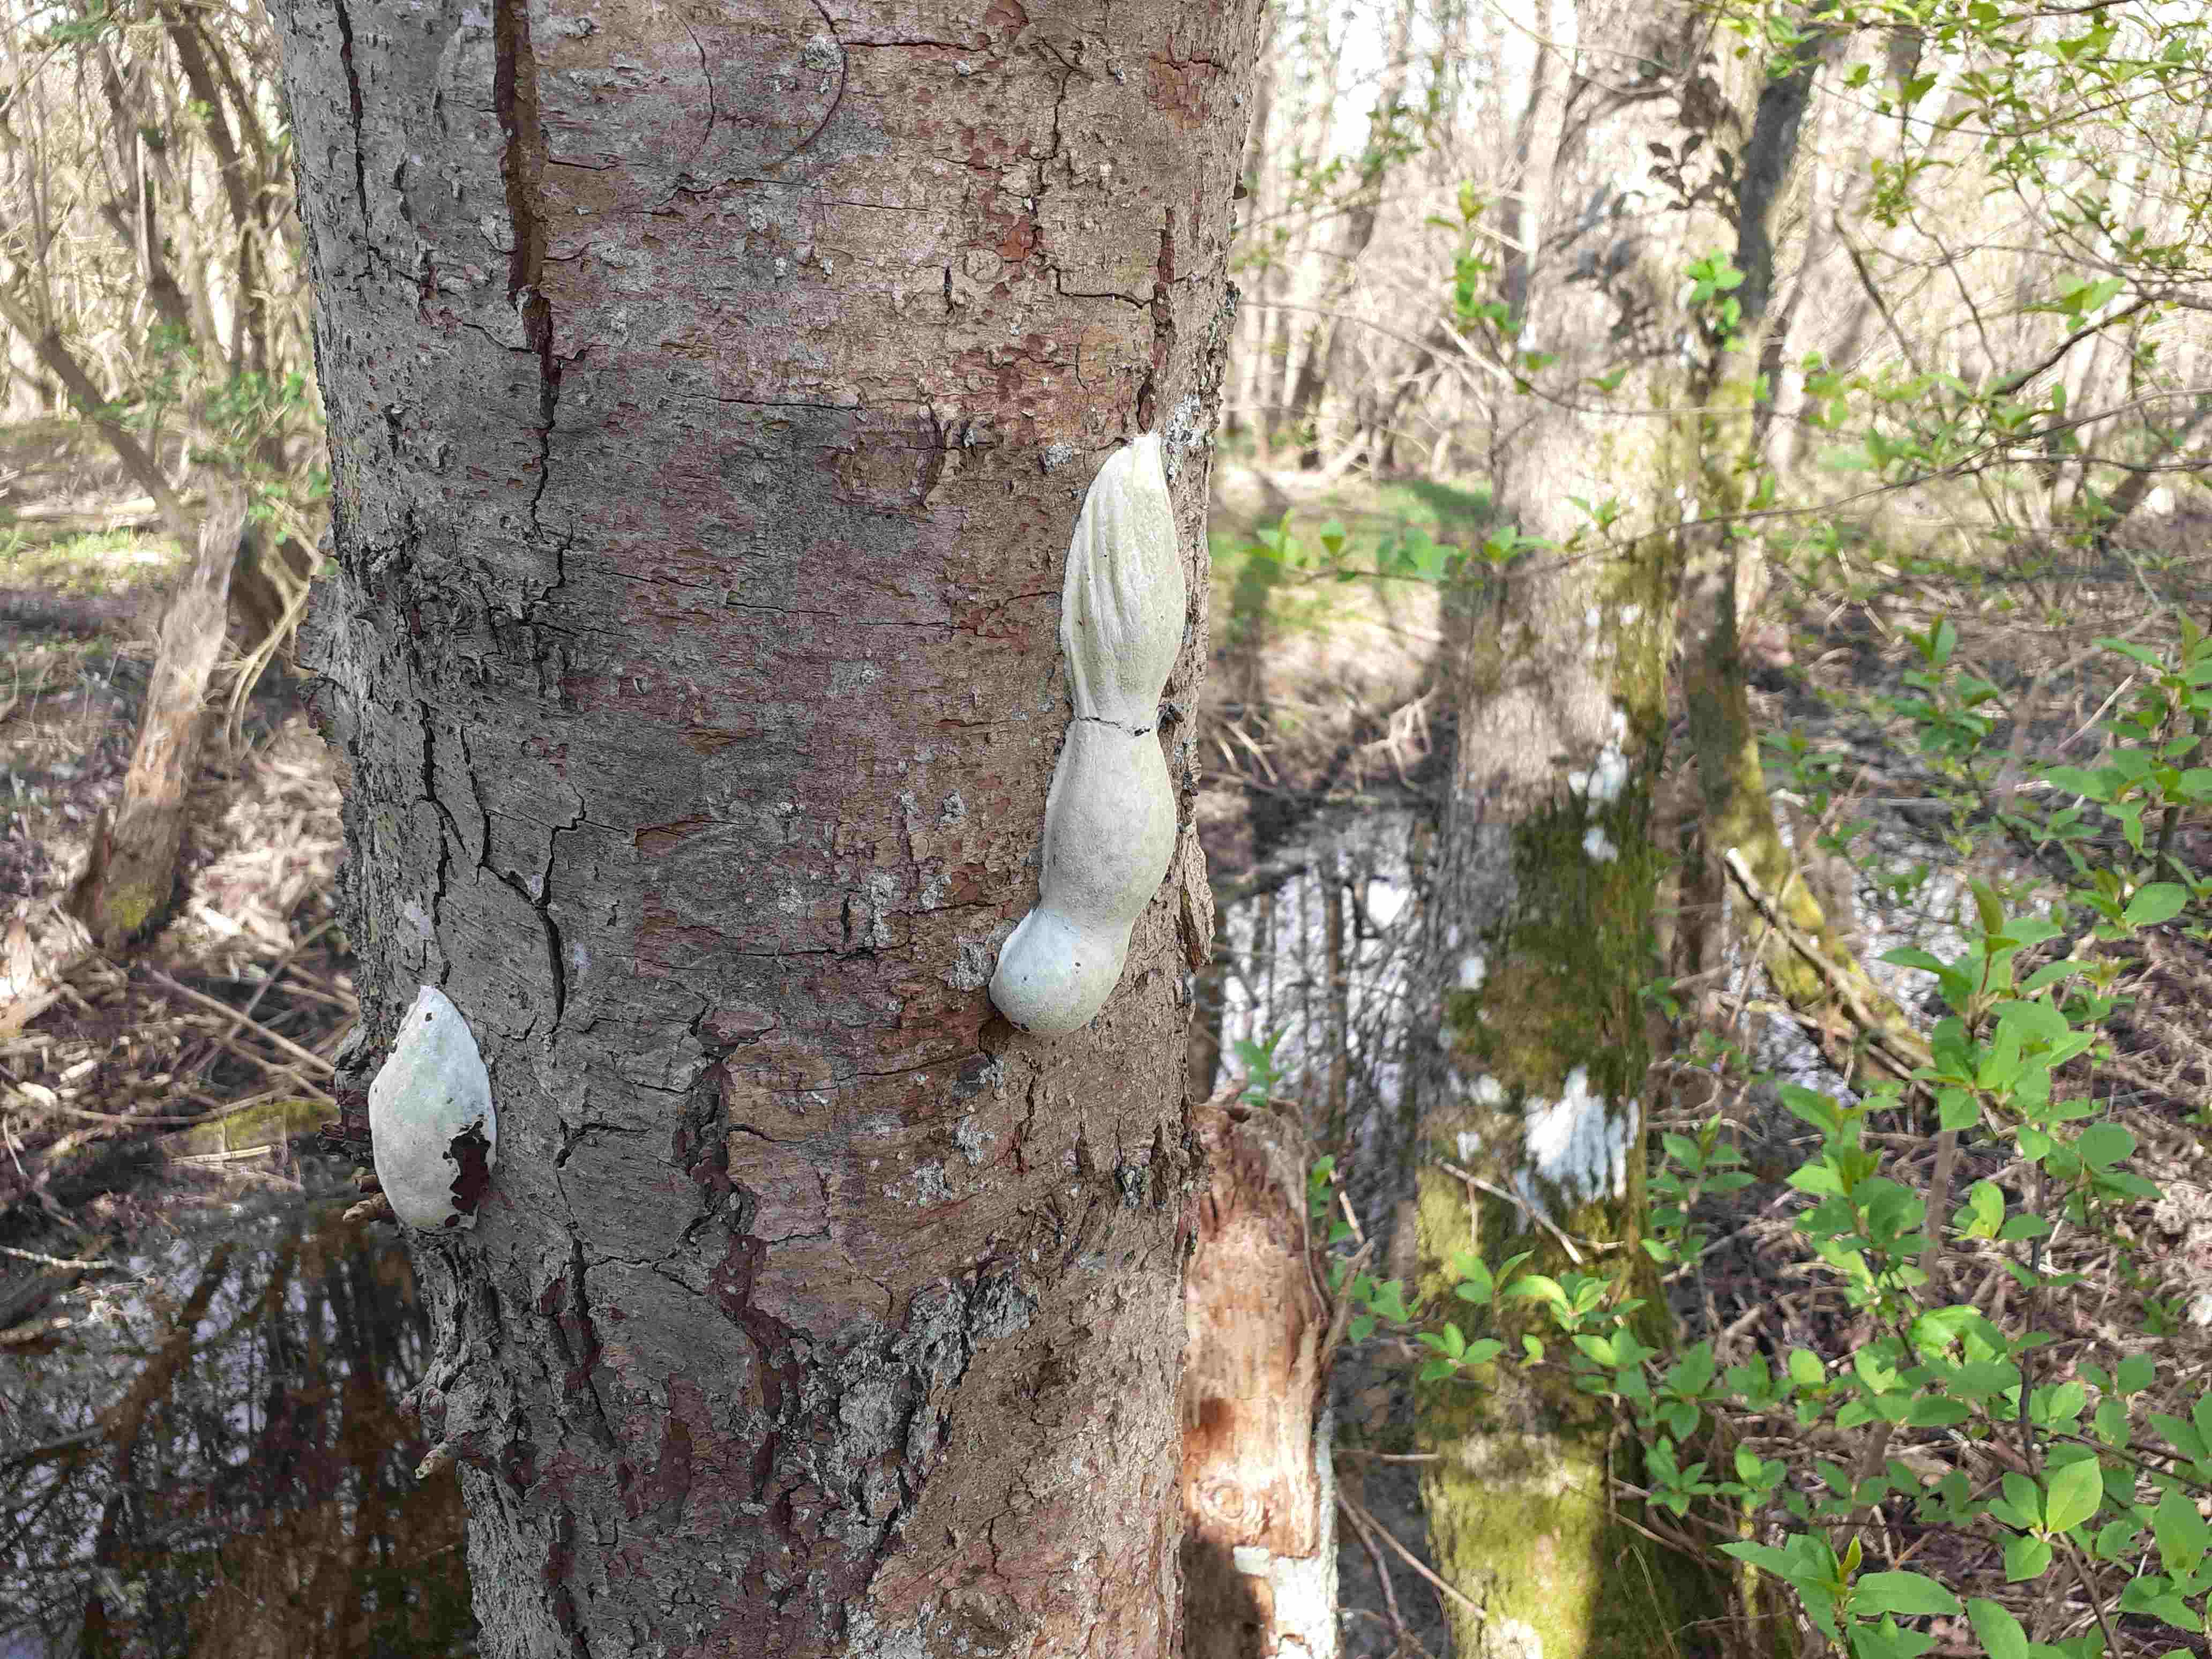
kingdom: Protozoa
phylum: Mycetozoa
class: Myxomycetes
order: Cribrariales
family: Tubiferaceae
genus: Reticularia
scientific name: Reticularia lycoperdon
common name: skinnende støvpude
